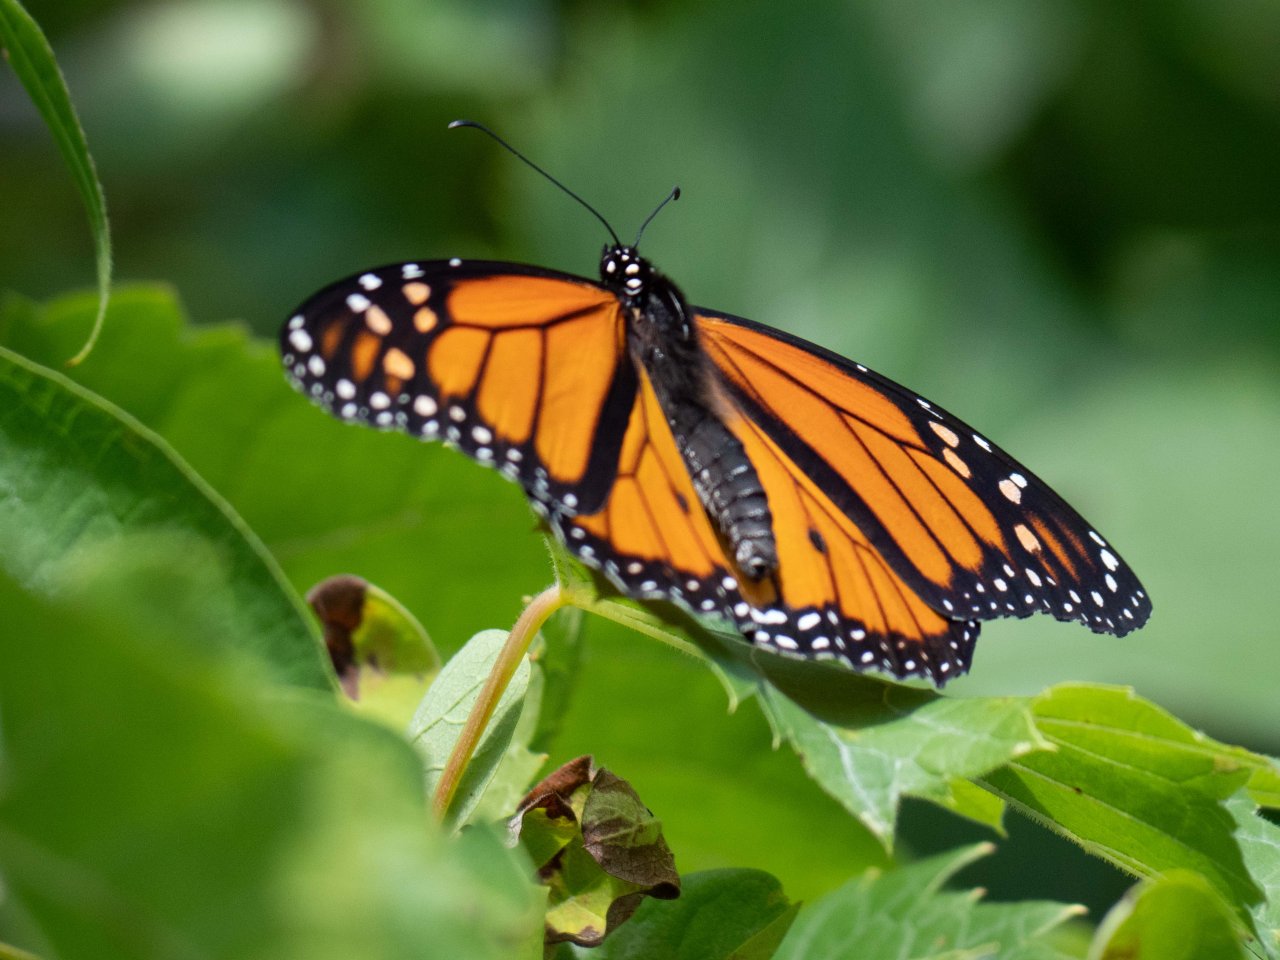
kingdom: Animalia
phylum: Arthropoda
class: Insecta
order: Lepidoptera
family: Nymphalidae
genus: Danaus
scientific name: Danaus plexippus
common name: Monarch
